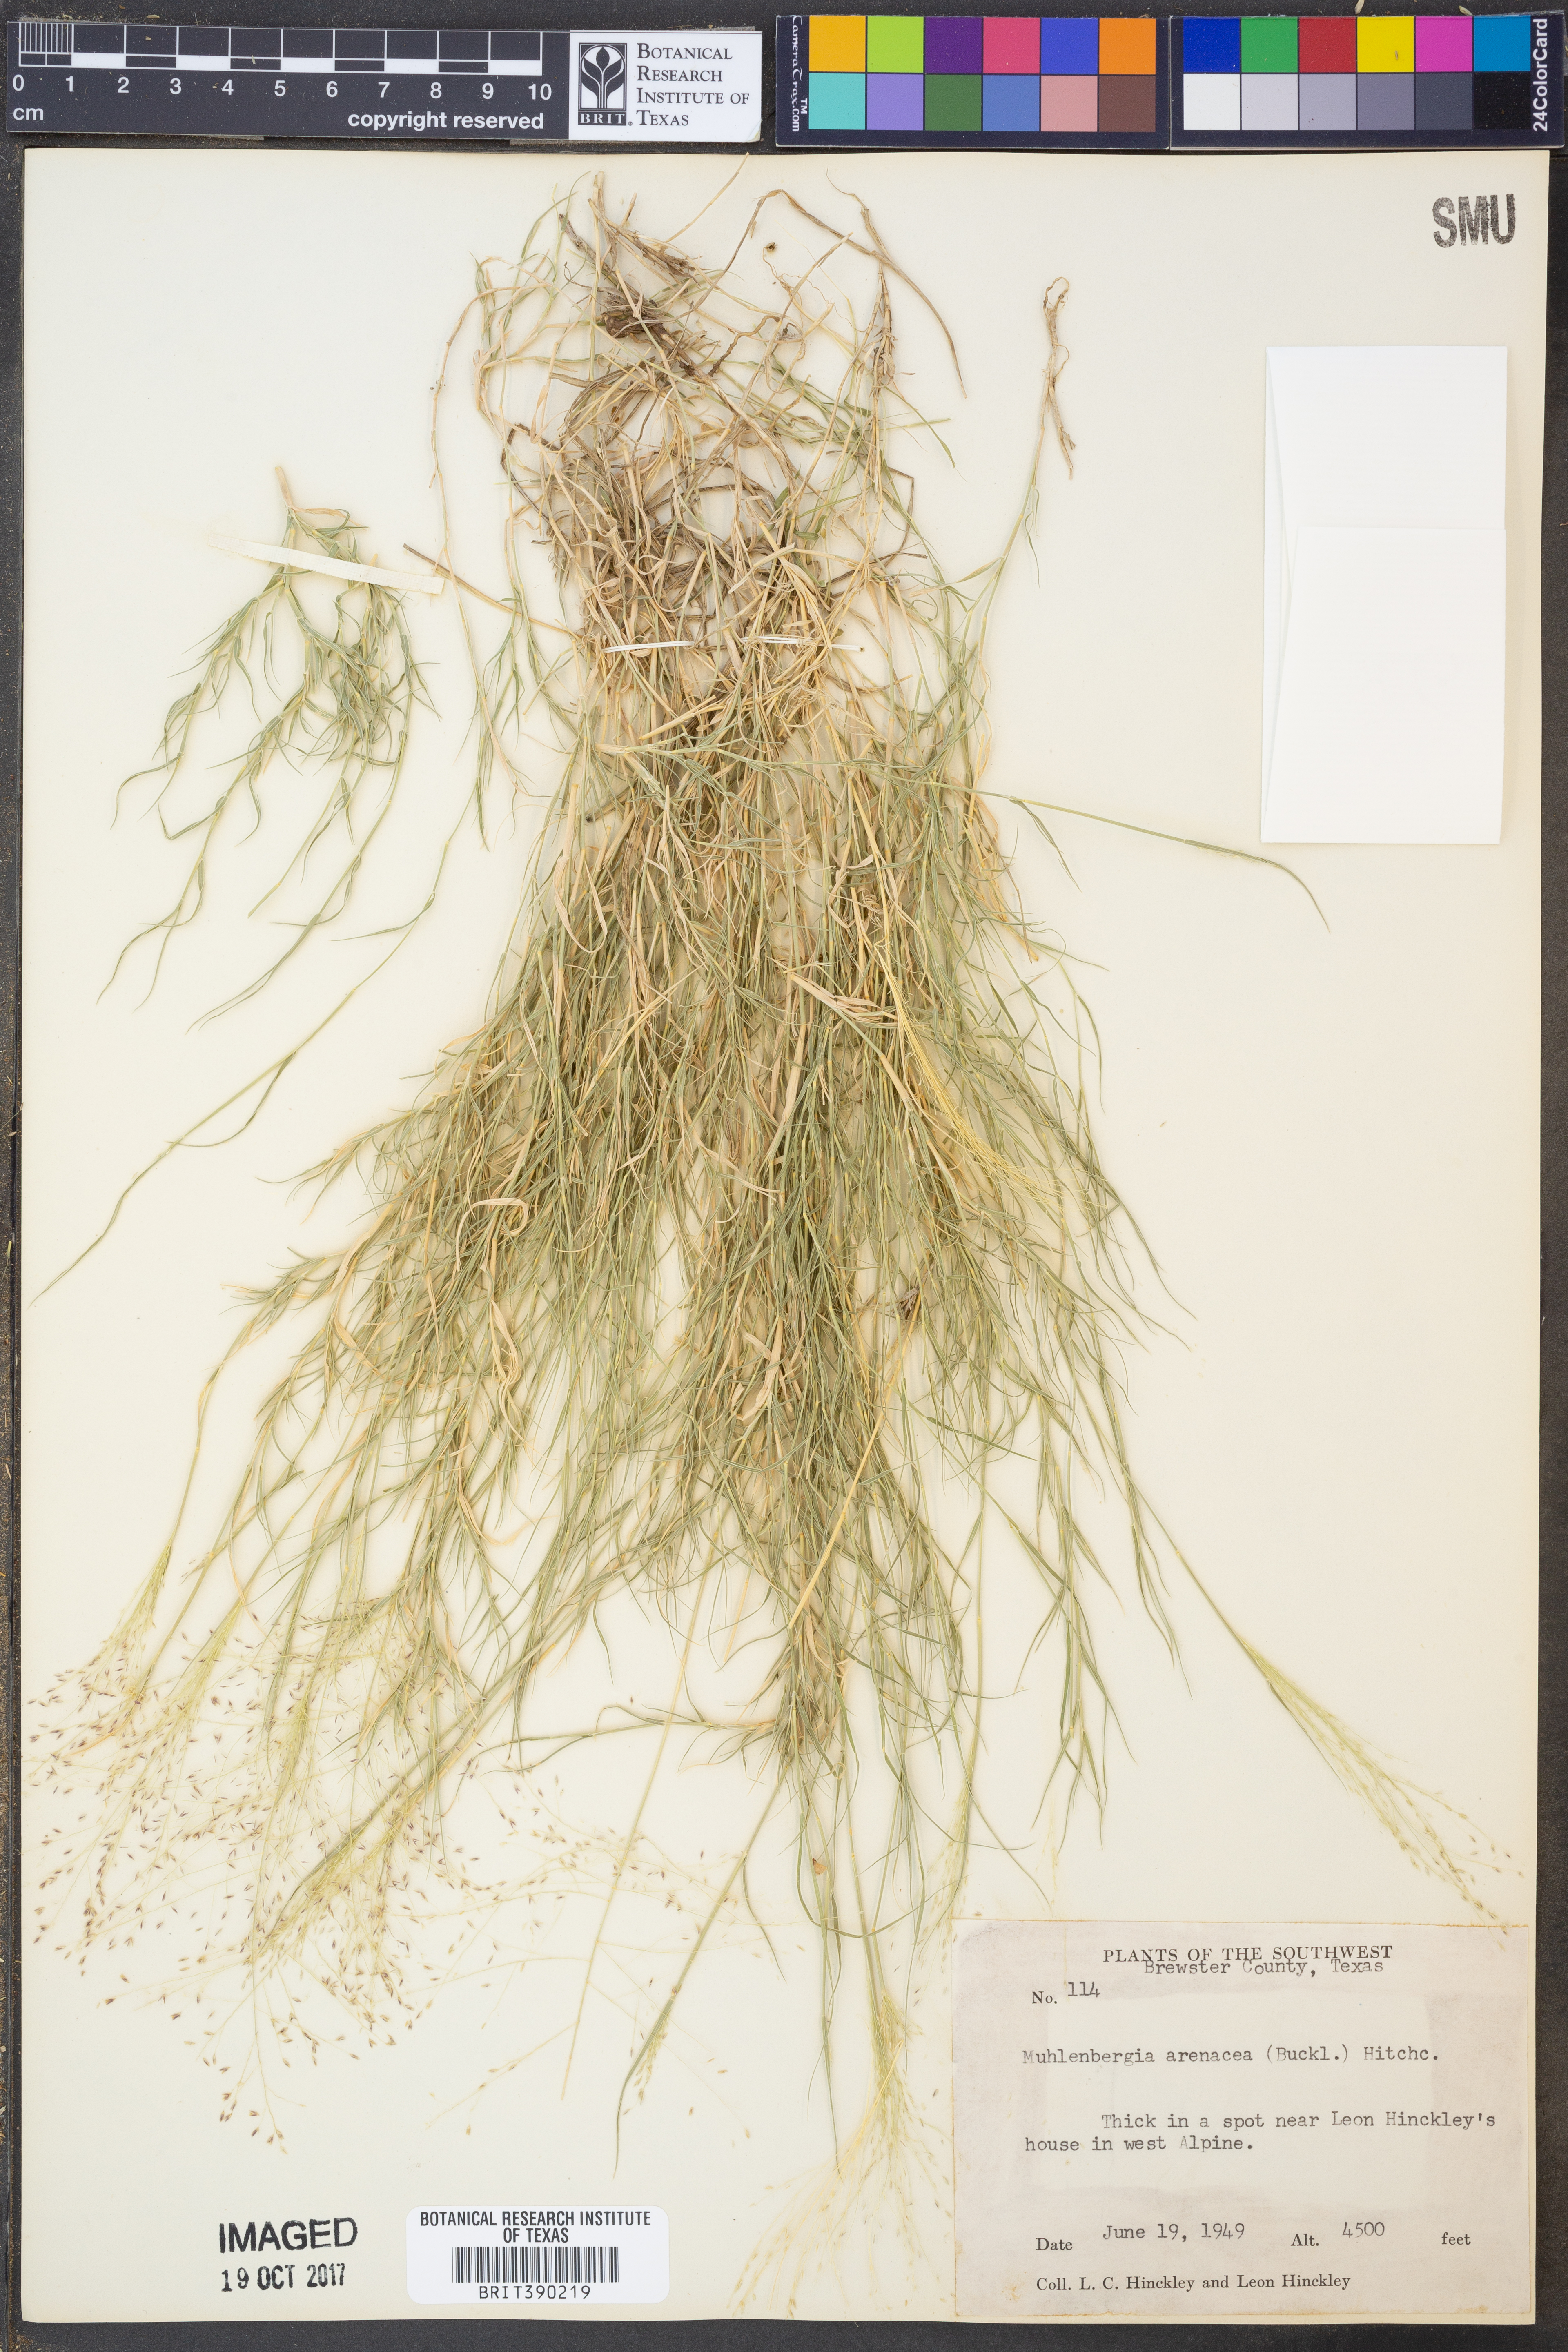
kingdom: Plantae
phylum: Tracheophyta
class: Liliopsida
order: Poales
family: Poaceae
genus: Muhlenbergia
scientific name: Muhlenbergia arenacea
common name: Ear muhly
